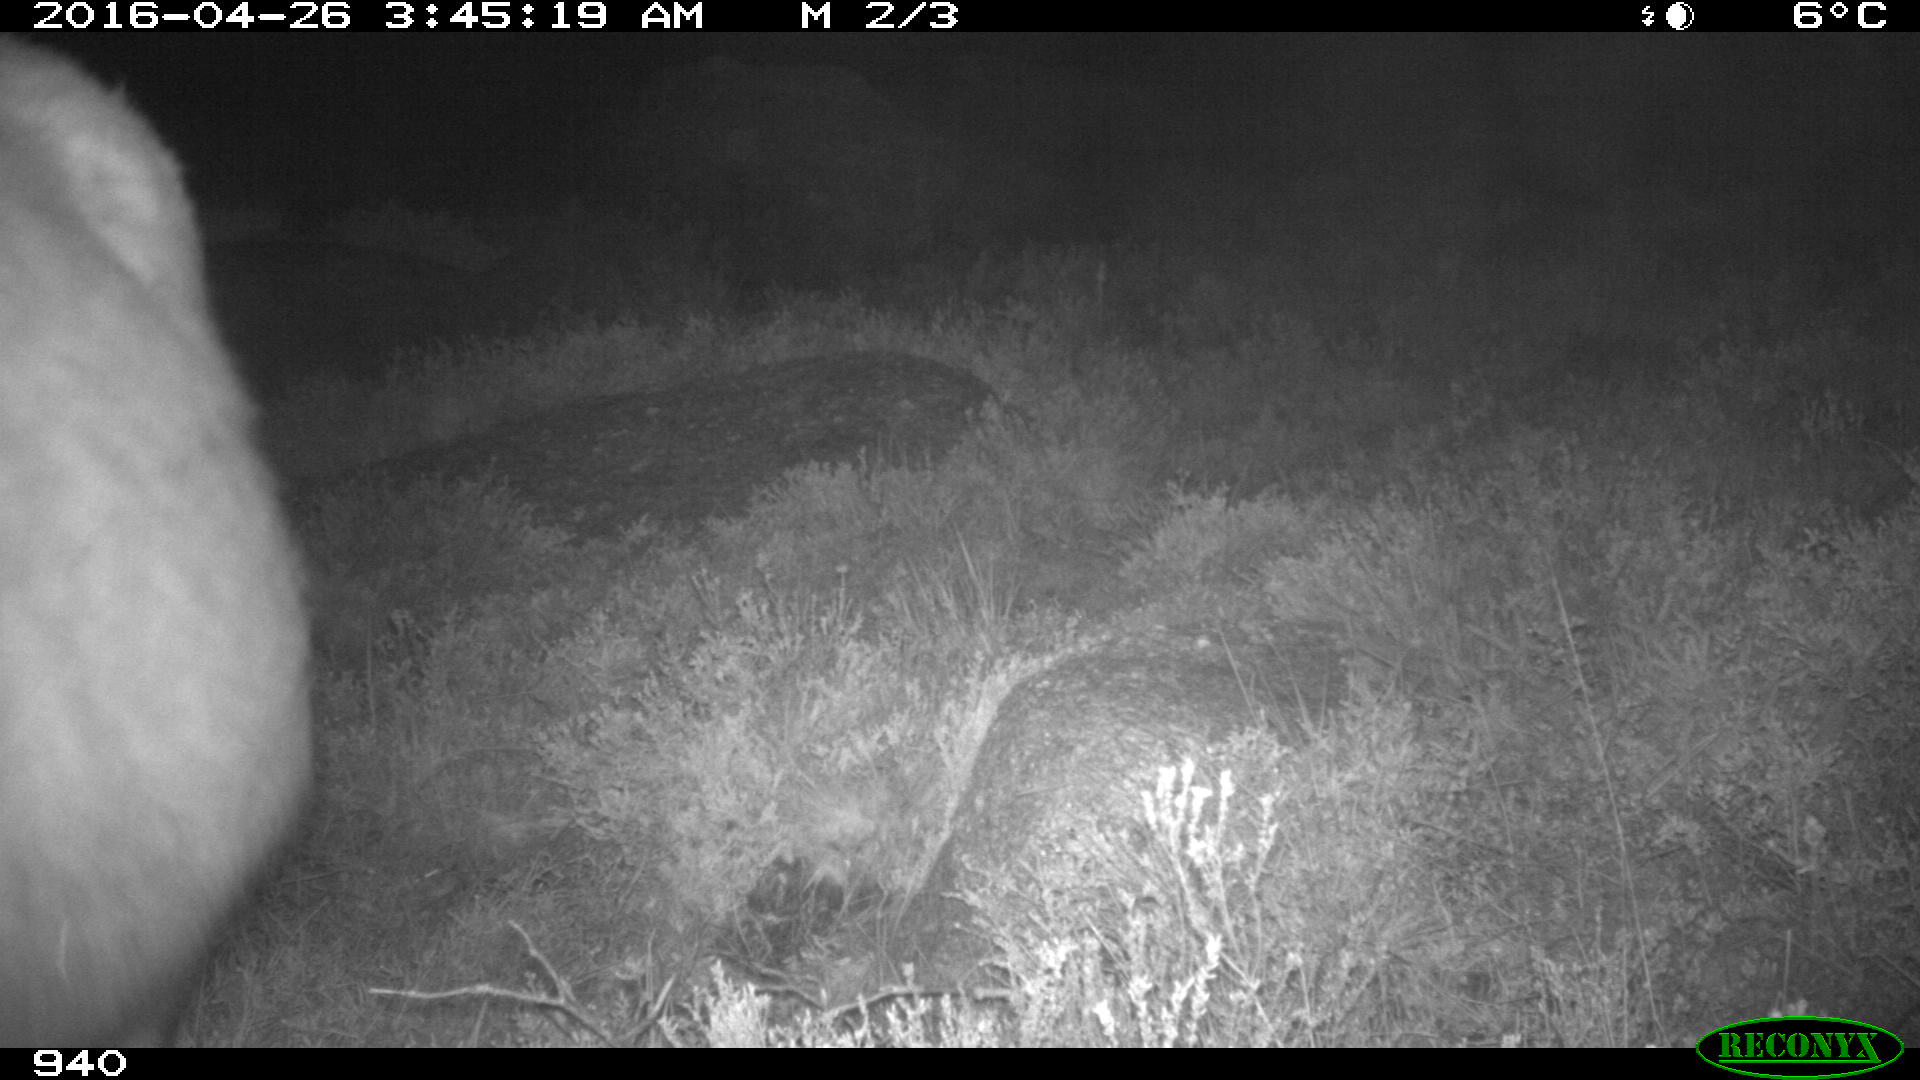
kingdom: Animalia
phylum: Chordata
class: Mammalia
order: Perissodactyla
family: Equidae
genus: Equus
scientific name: Equus caballus
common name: Horse
